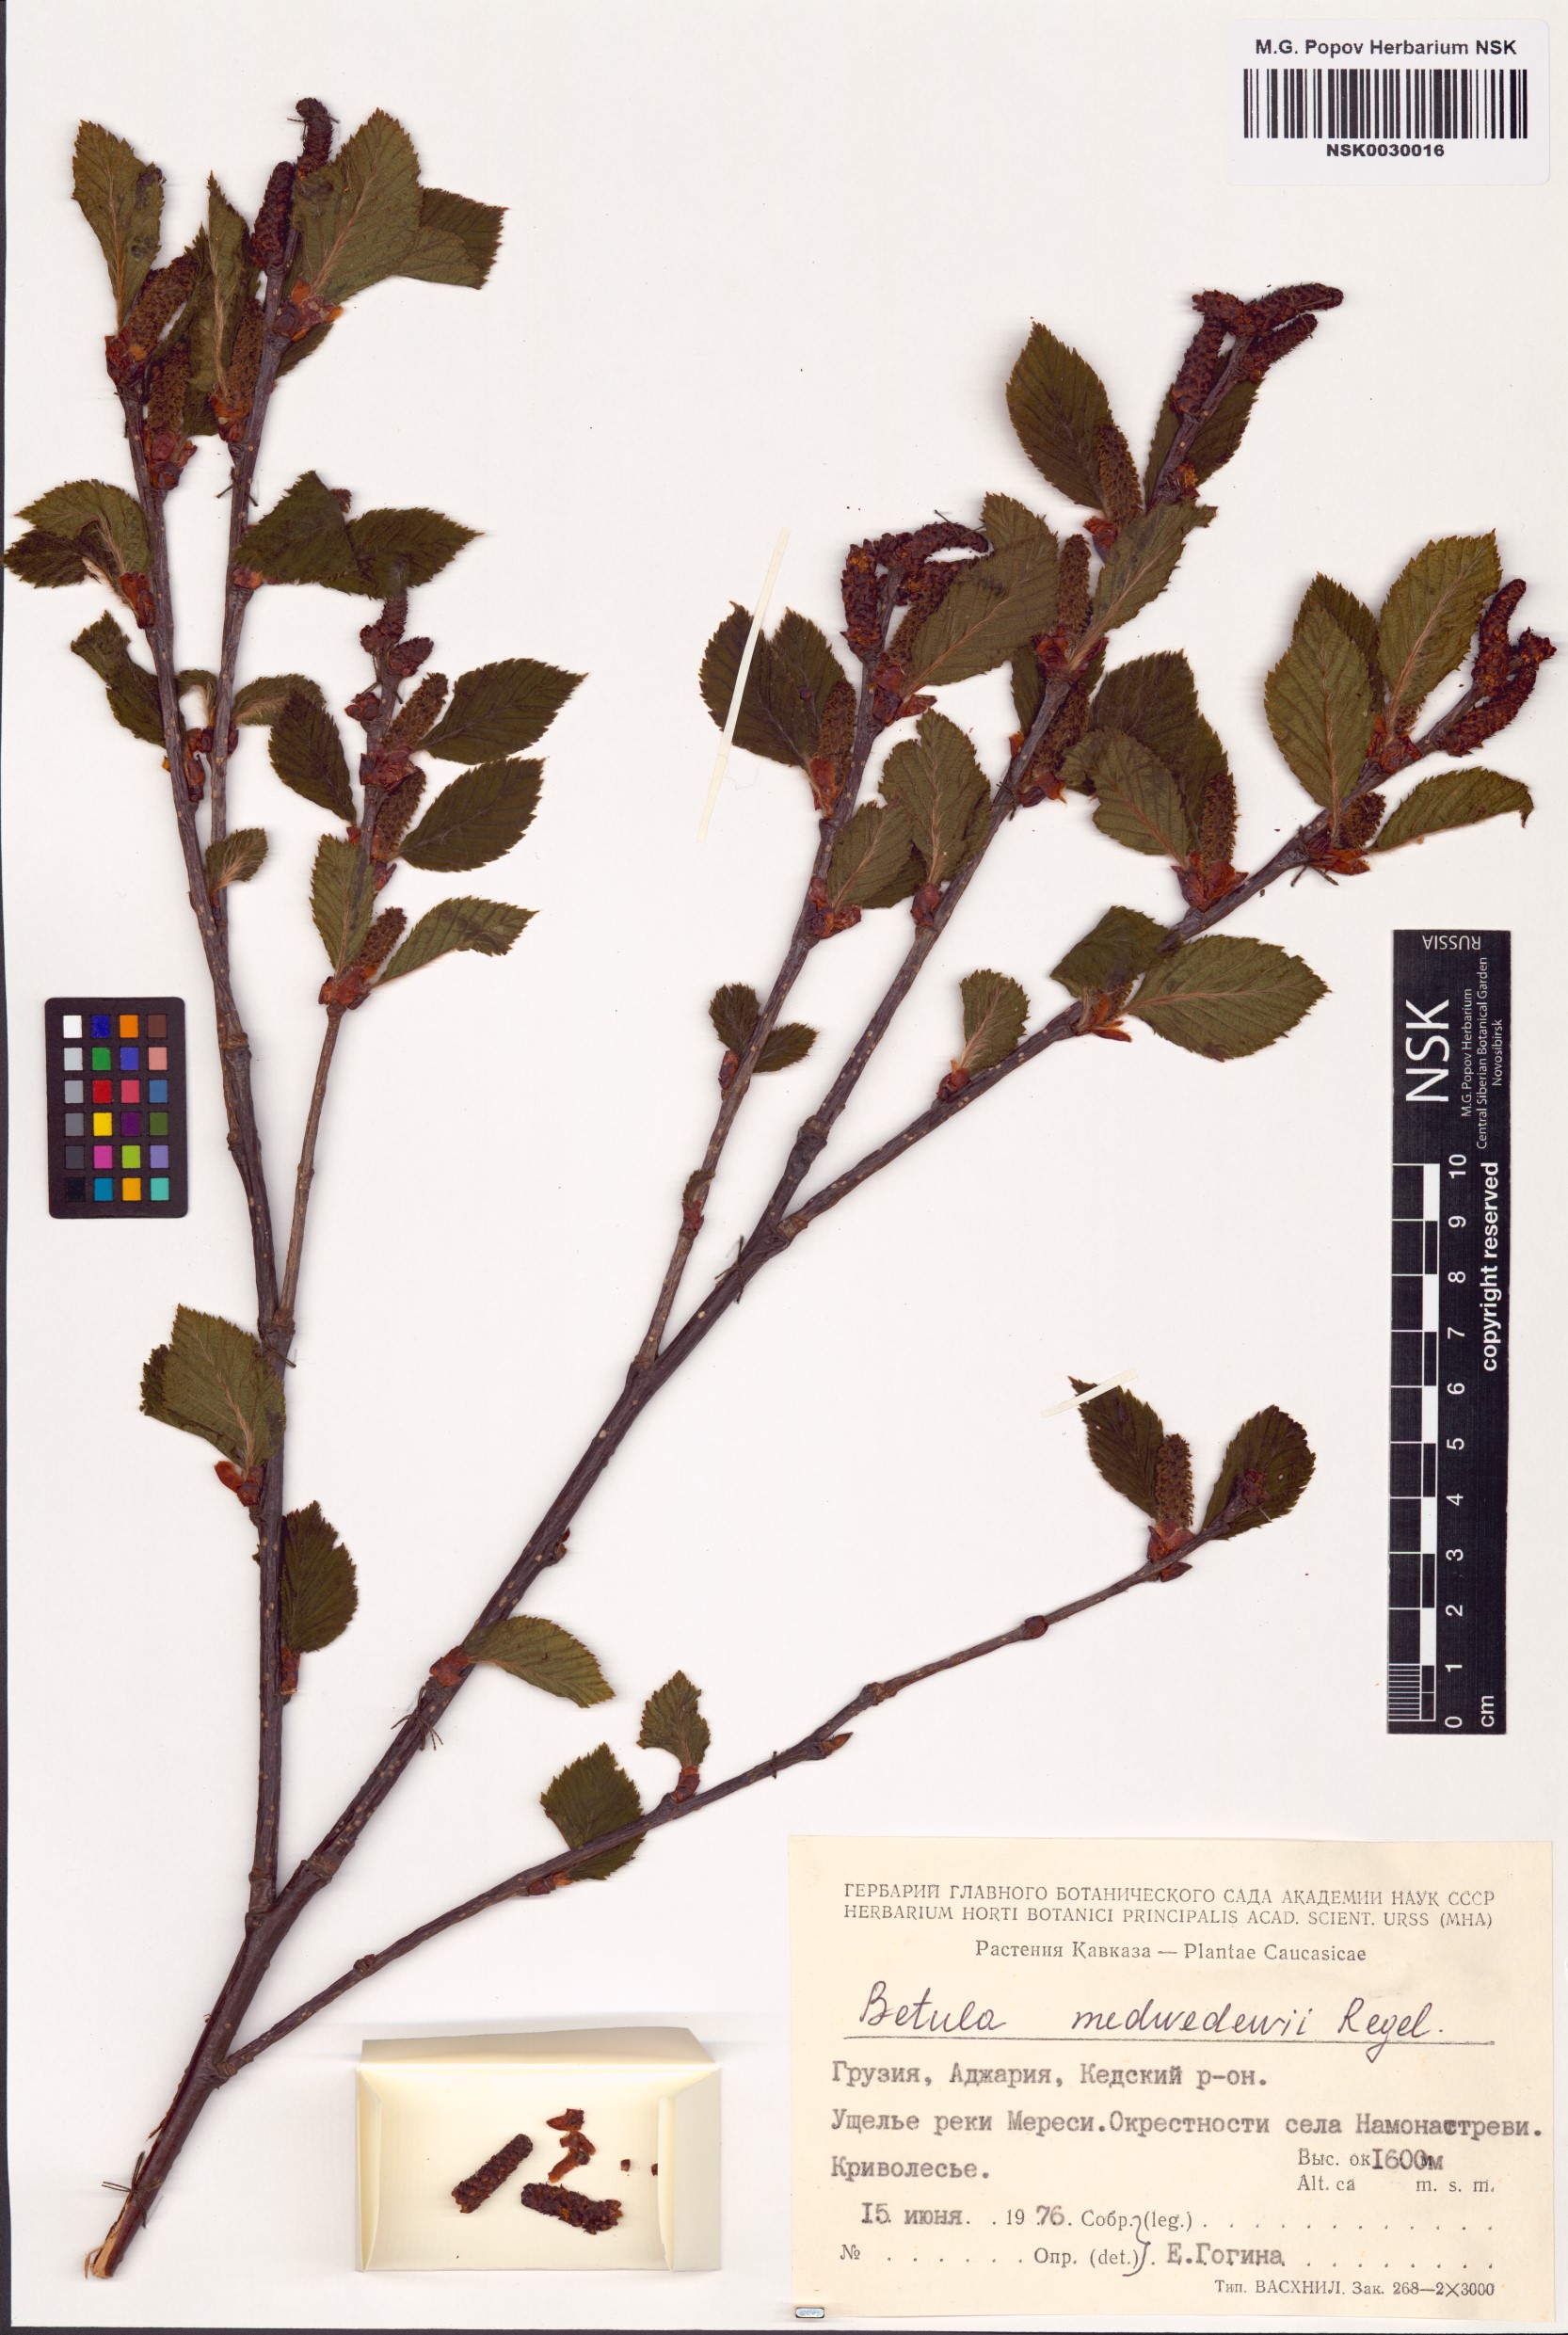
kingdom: Plantae
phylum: Tracheophyta
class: Magnoliopsida
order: Fagales
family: Betulaceae
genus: Betula
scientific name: Betula medwediewii
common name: Medwediew's birch
